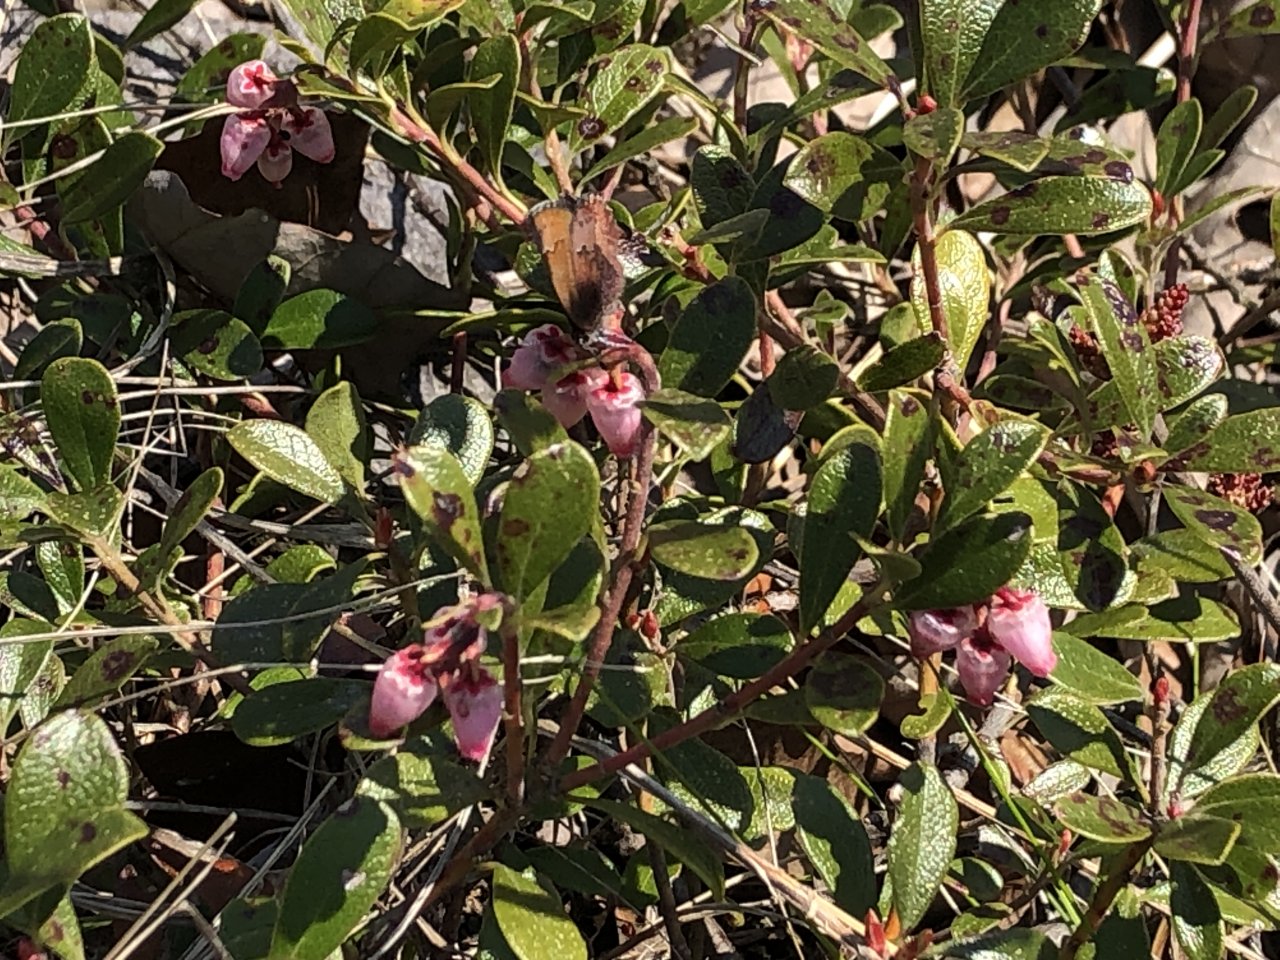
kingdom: Animalia
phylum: Arthropoda
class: Insecta
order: Lepidoptera
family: Lycaenidae
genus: Incisalia
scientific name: Incisalia irioides
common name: Brown Elfin
